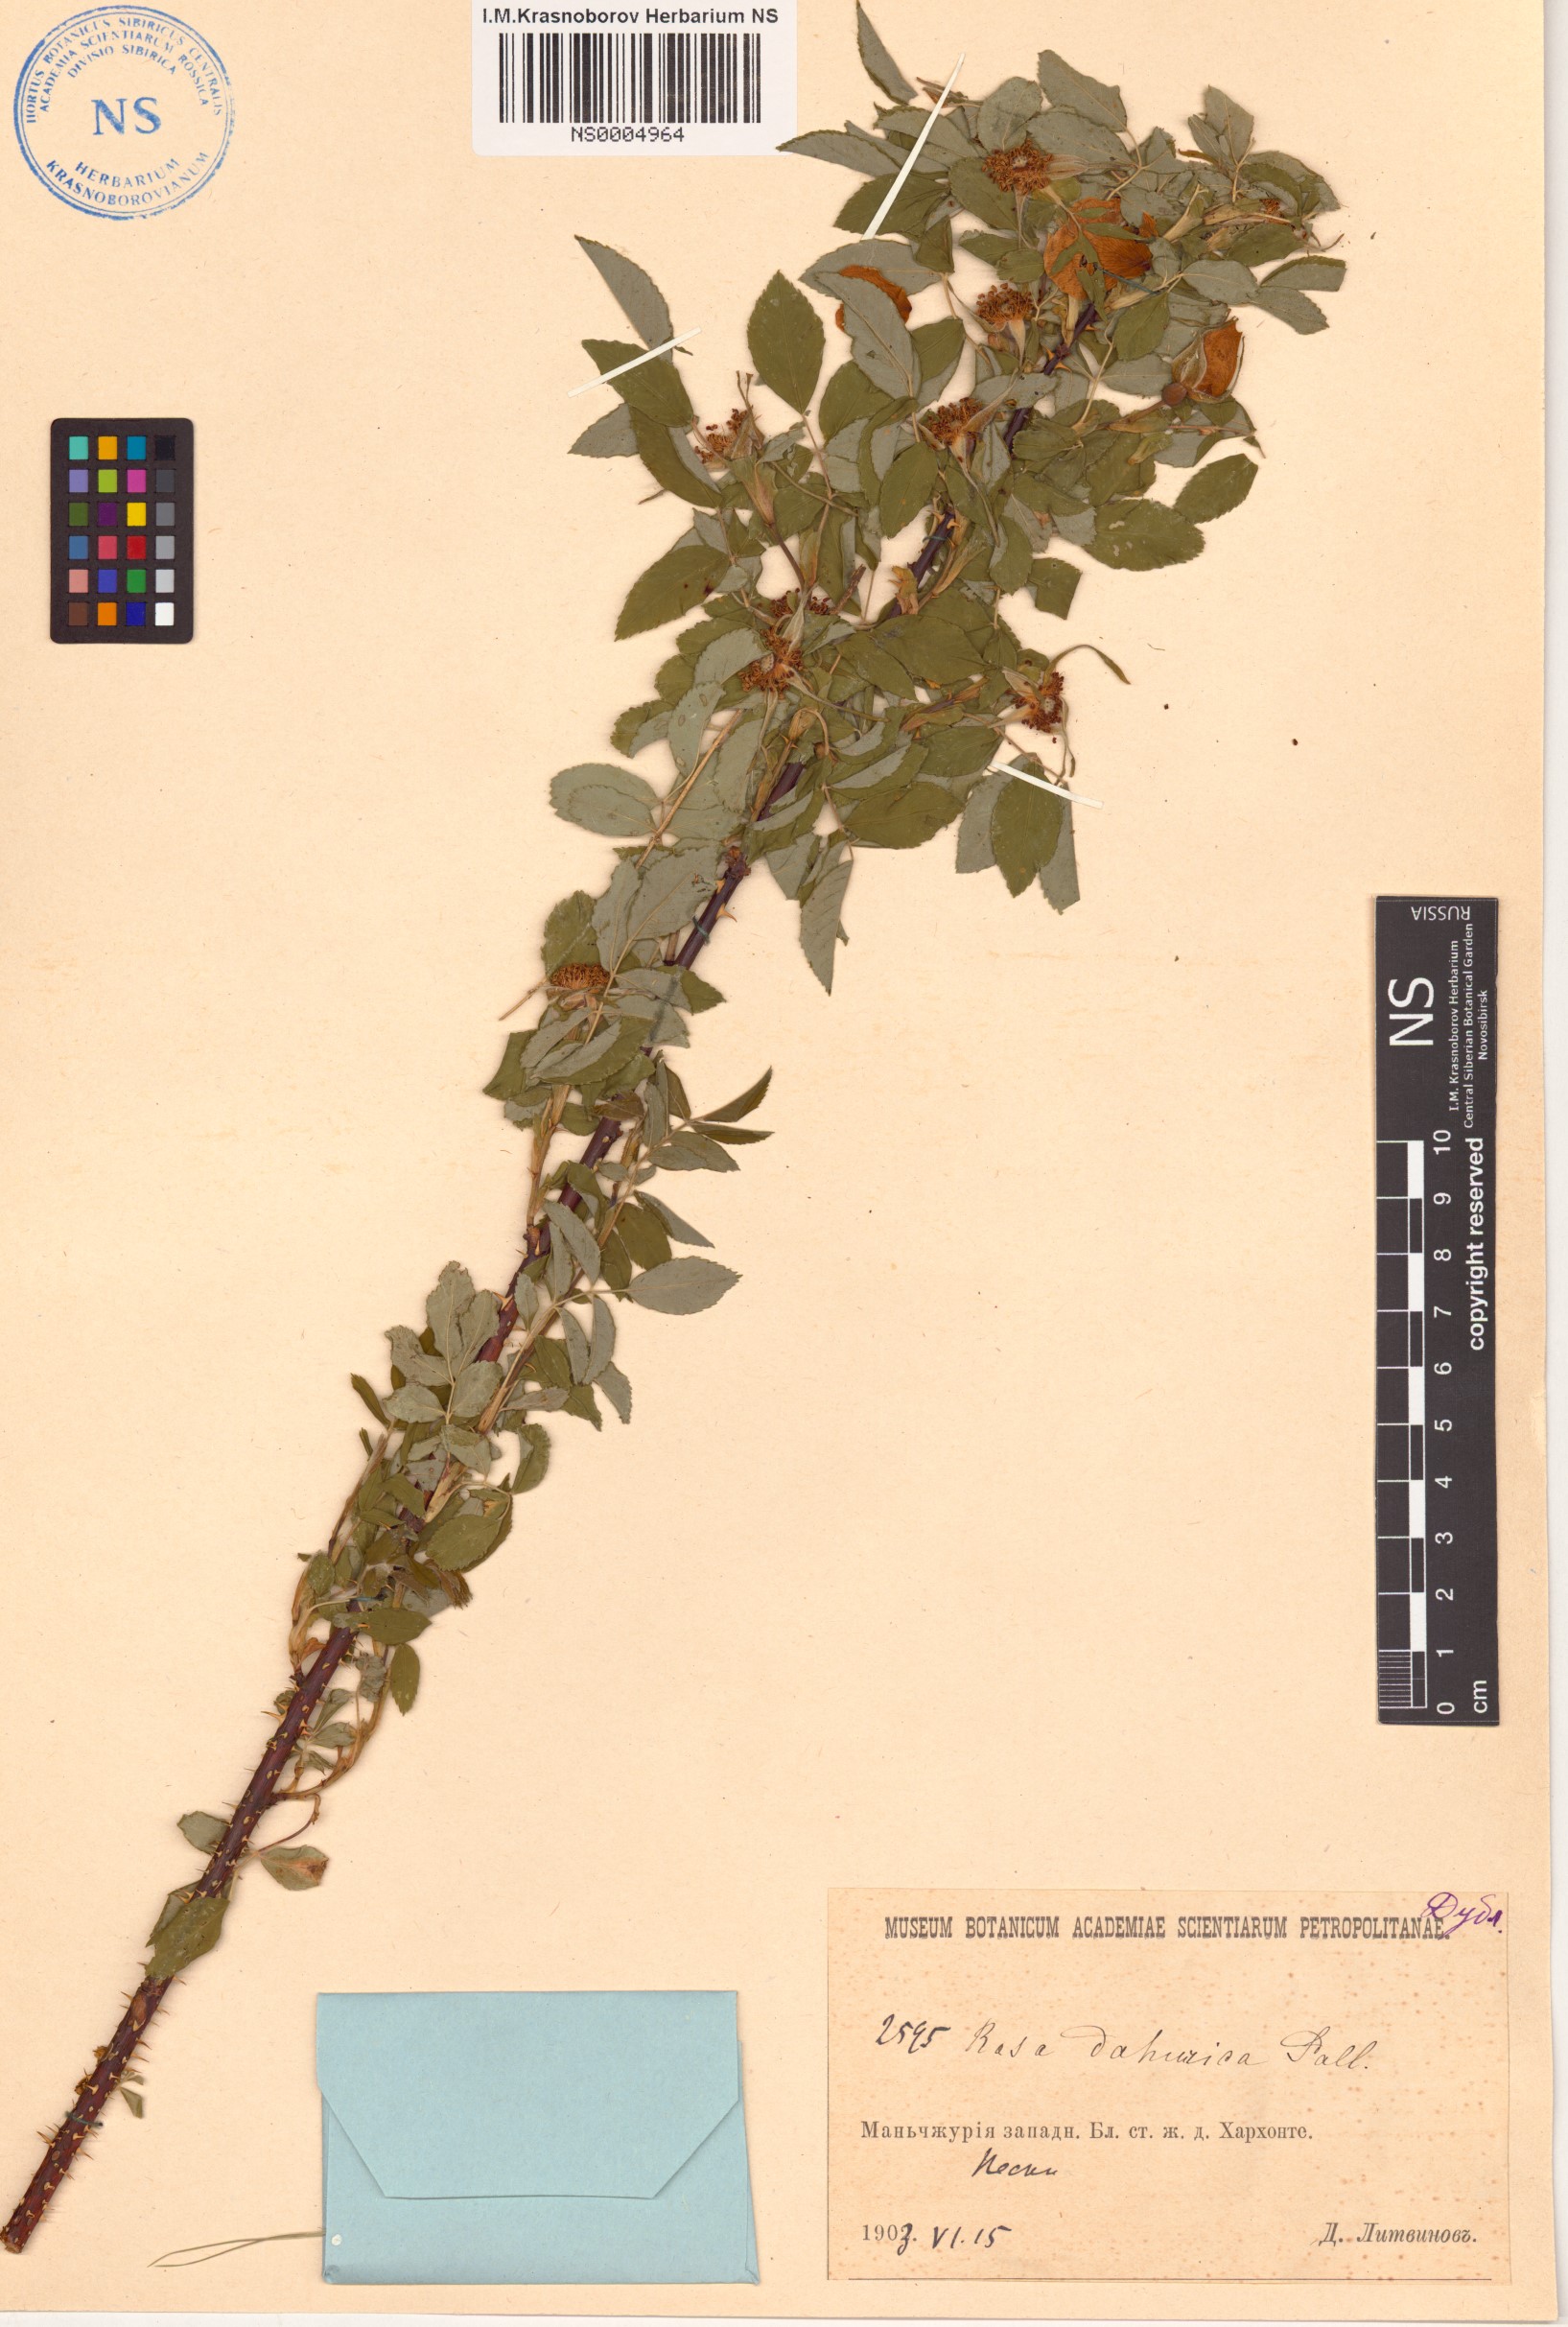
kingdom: Plantae
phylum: Tracheophyta
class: Magnoliopsida
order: Rosales
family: Rosaceae
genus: Rosa
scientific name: Rosa davurica
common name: Amur rose
